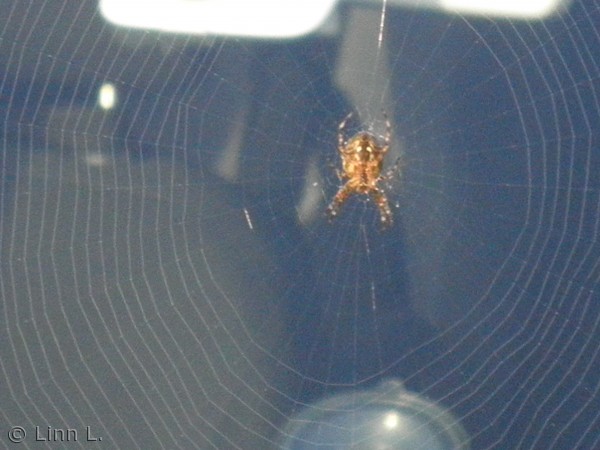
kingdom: Animalia
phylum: Arthropoda
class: Arachnida
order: Araneae
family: Araneidae
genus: Araneus
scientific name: Araneus diadematus
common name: Korsedderkop
